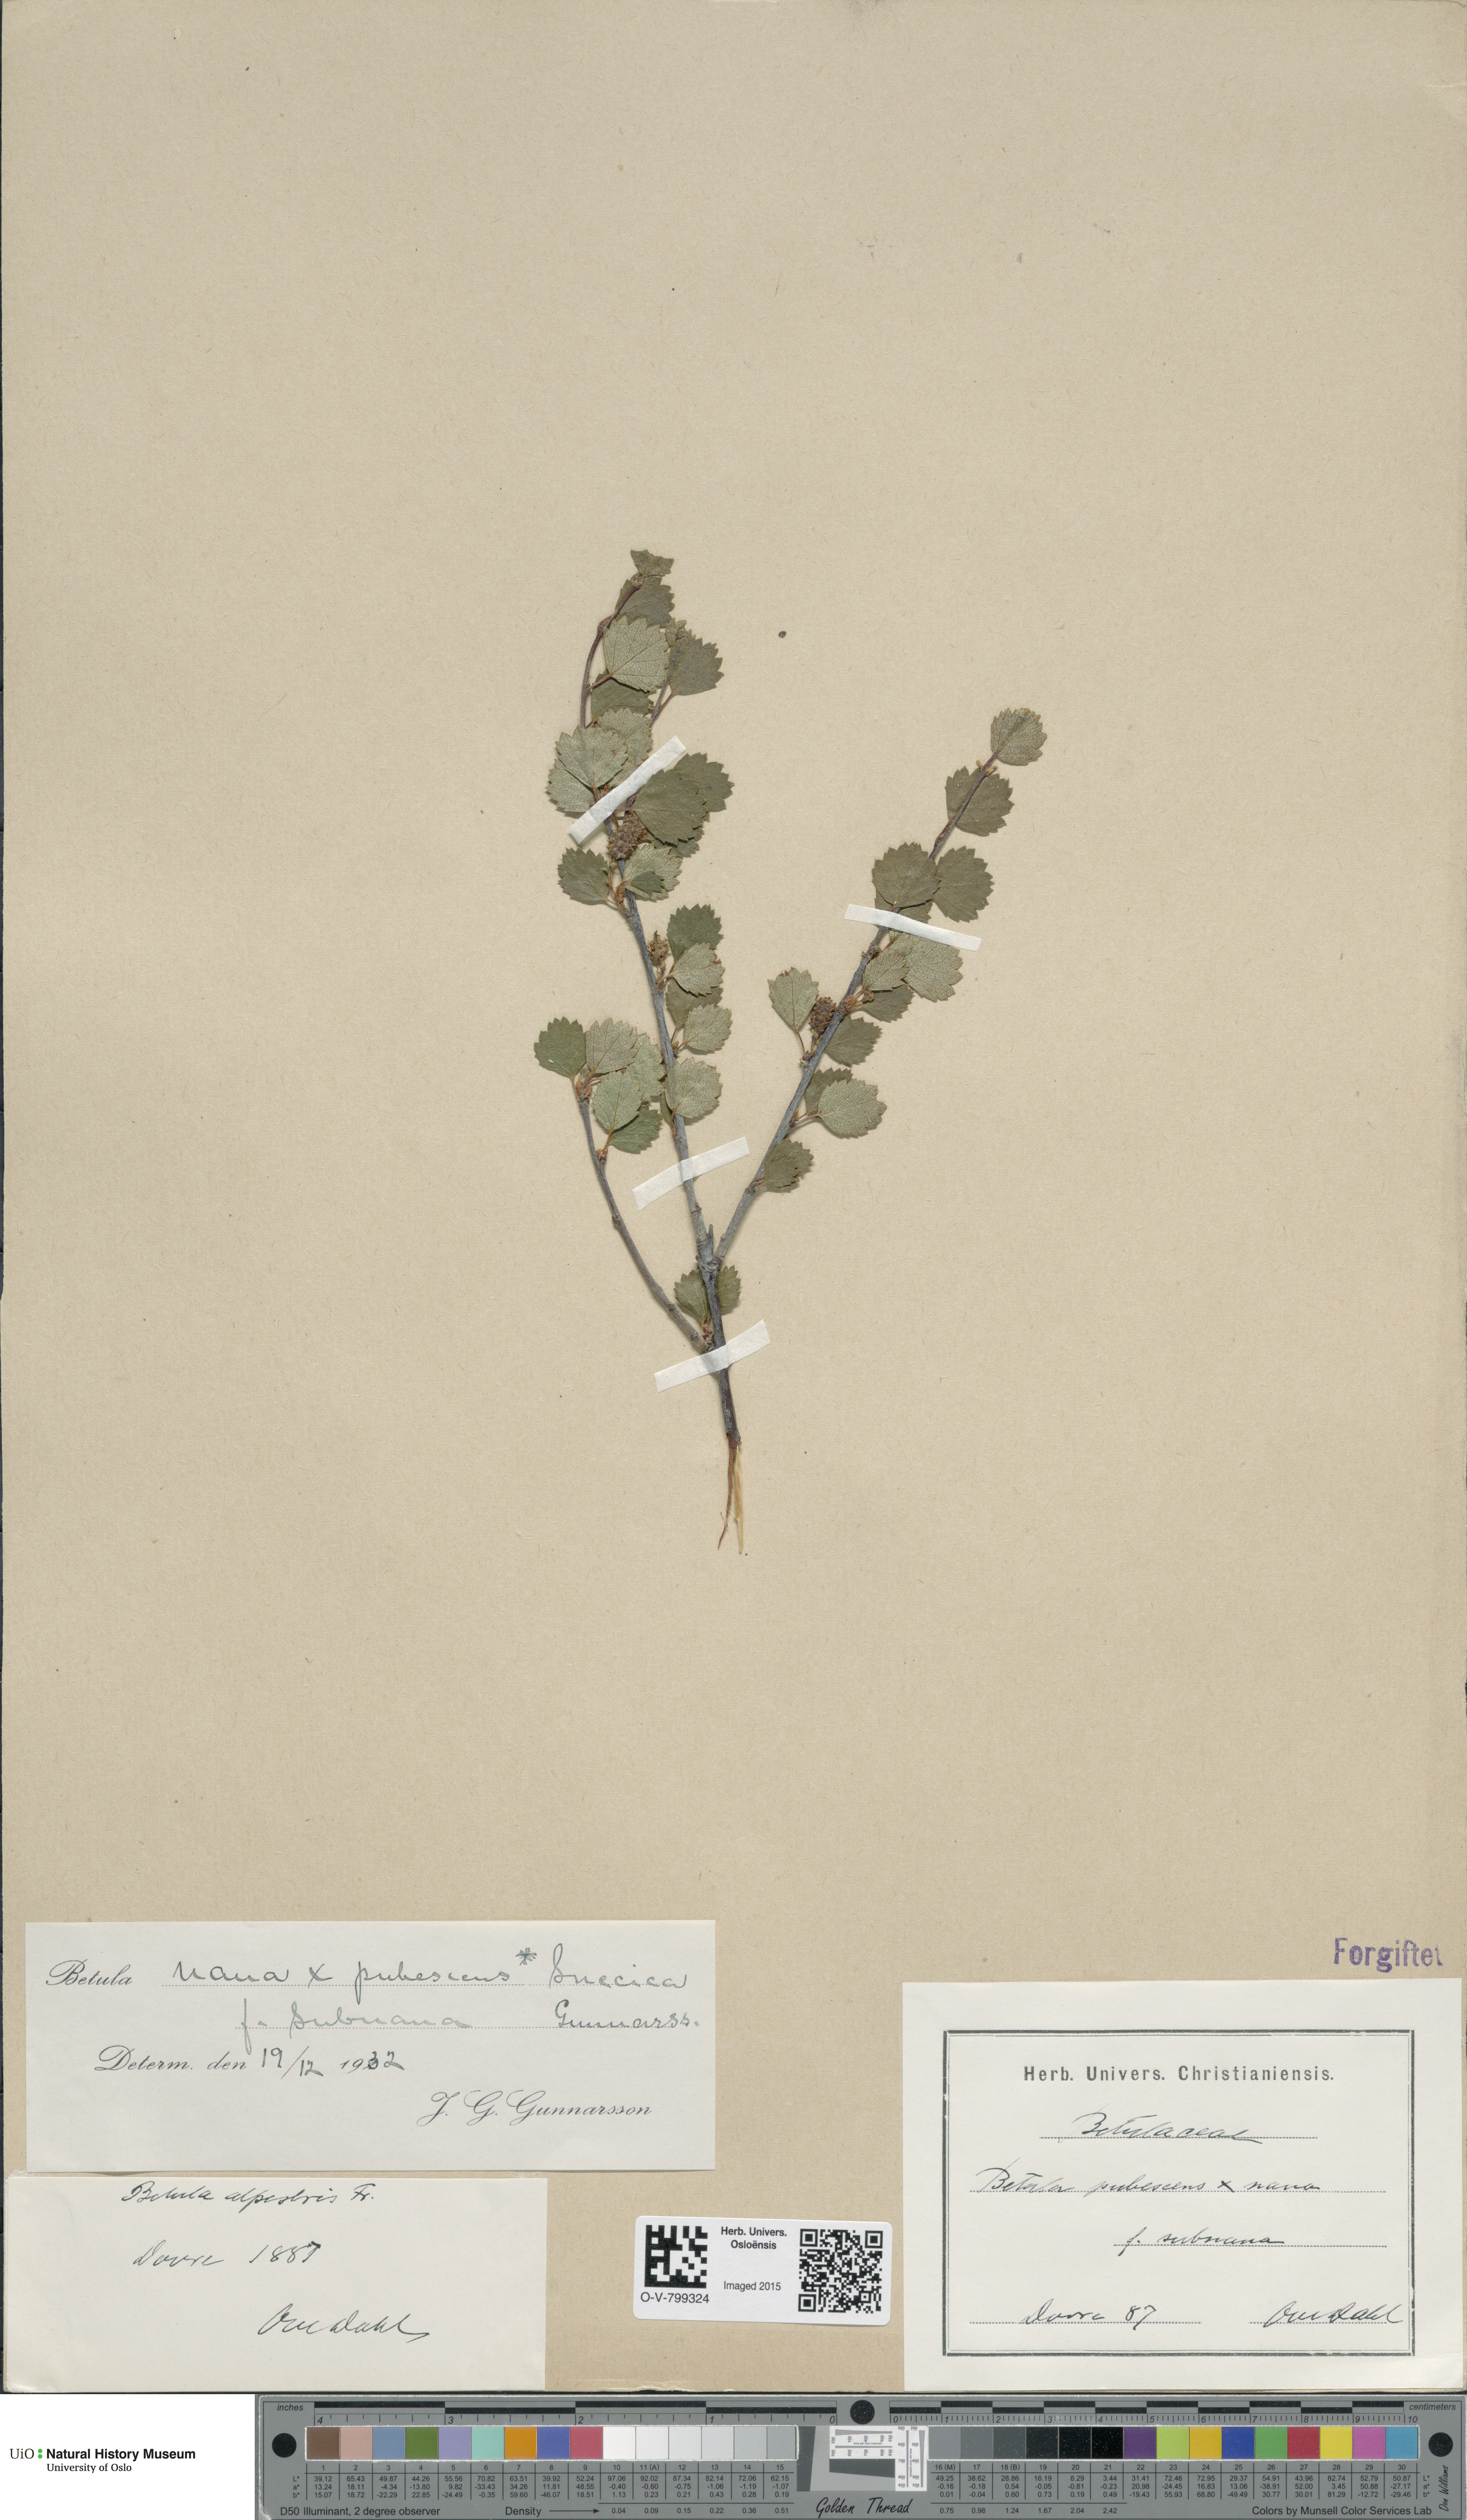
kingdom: Plantae
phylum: Tracheophyta
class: Magnoliopsida
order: Fagales
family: Betulaceae
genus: Betula
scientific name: Betula nana
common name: Arctic dwarf birch
